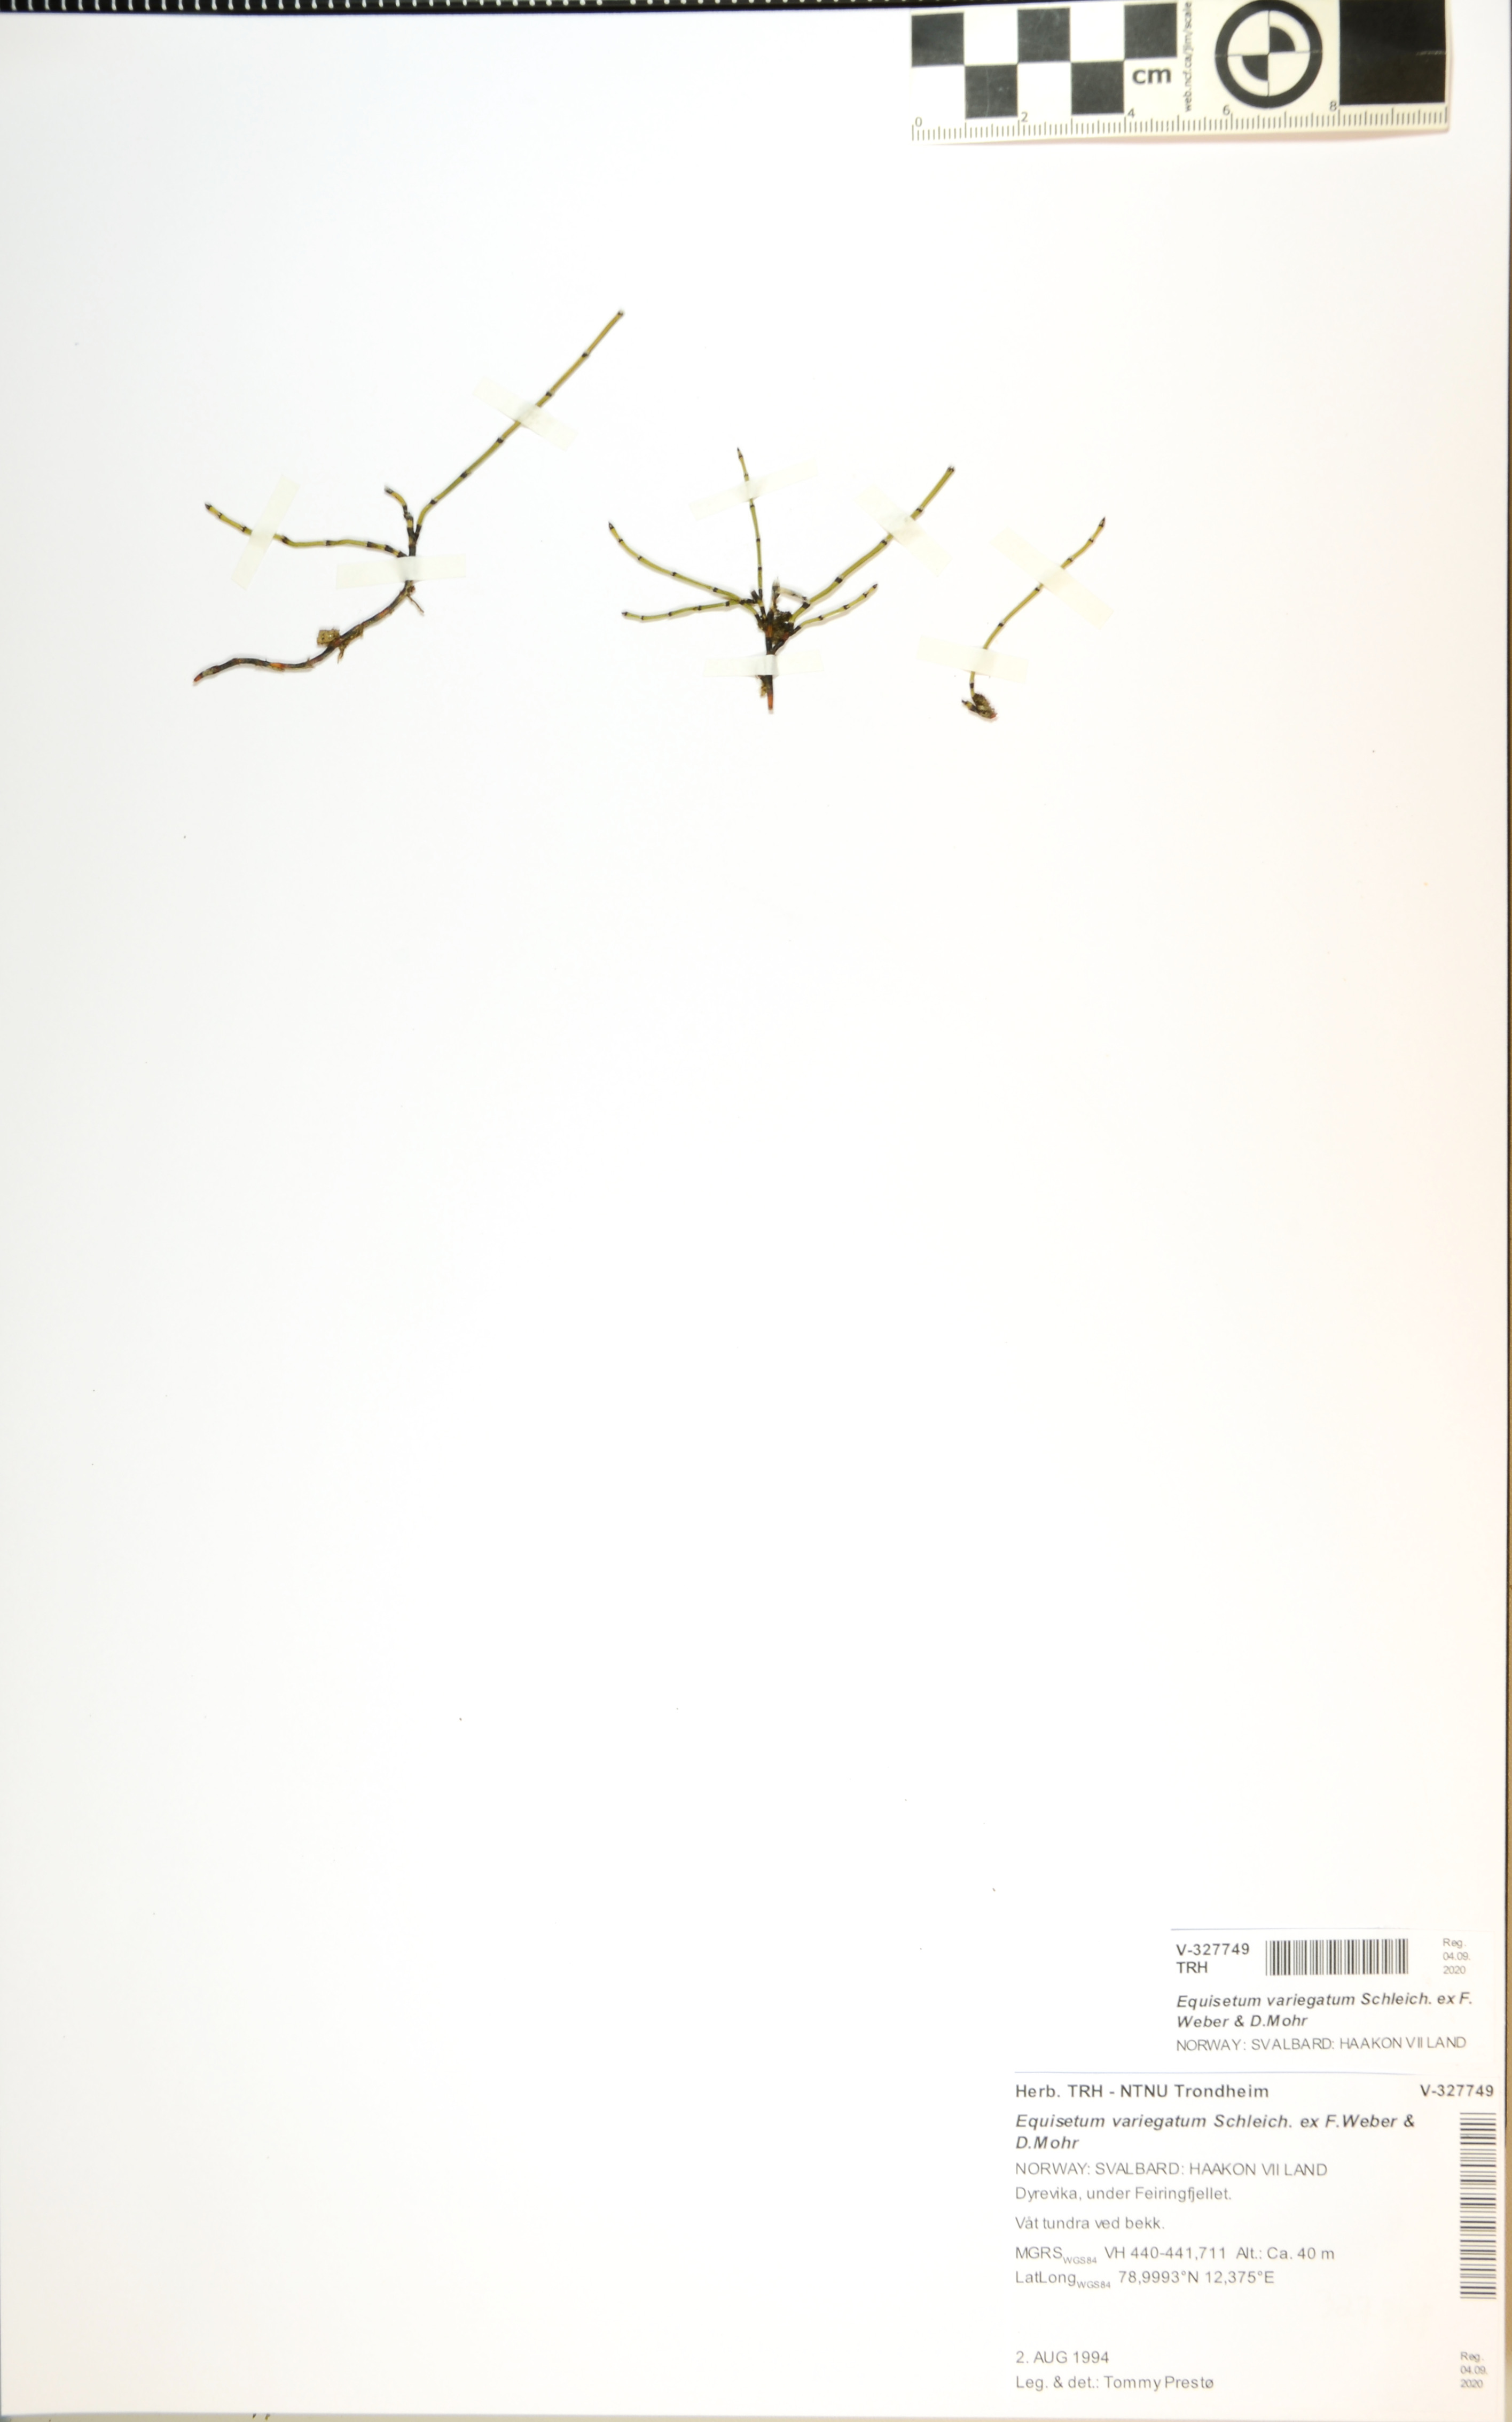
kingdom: Plantae
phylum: Tracheophyta
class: Polypodiopsida
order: Equisetales
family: Equisetaceae
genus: Equisetum
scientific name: Equisetum variegatum
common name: Variegated horsetail
